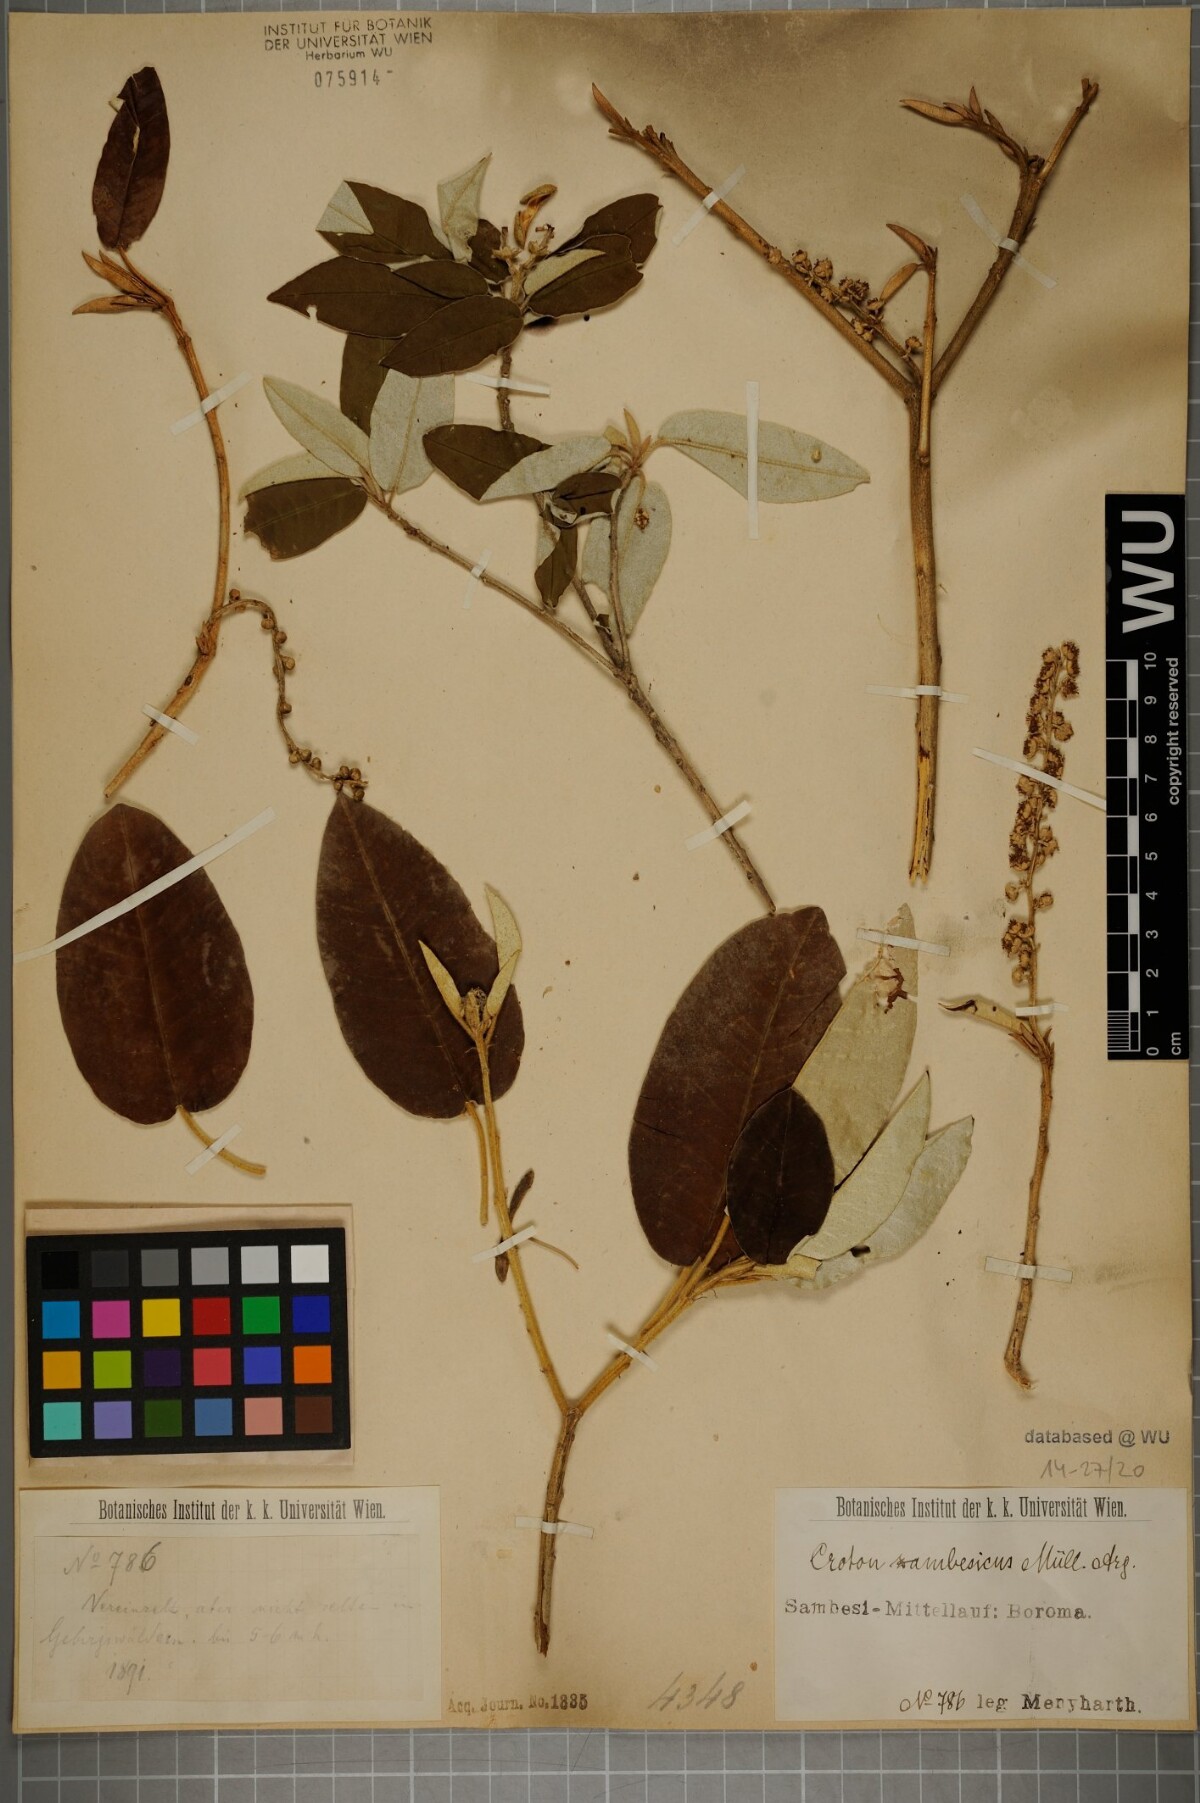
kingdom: Plantae
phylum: Tracheophyta
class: Magnoliopsida
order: Malpighiales
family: Euphorbiaceae
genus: Croton
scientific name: Croton gratissimus
